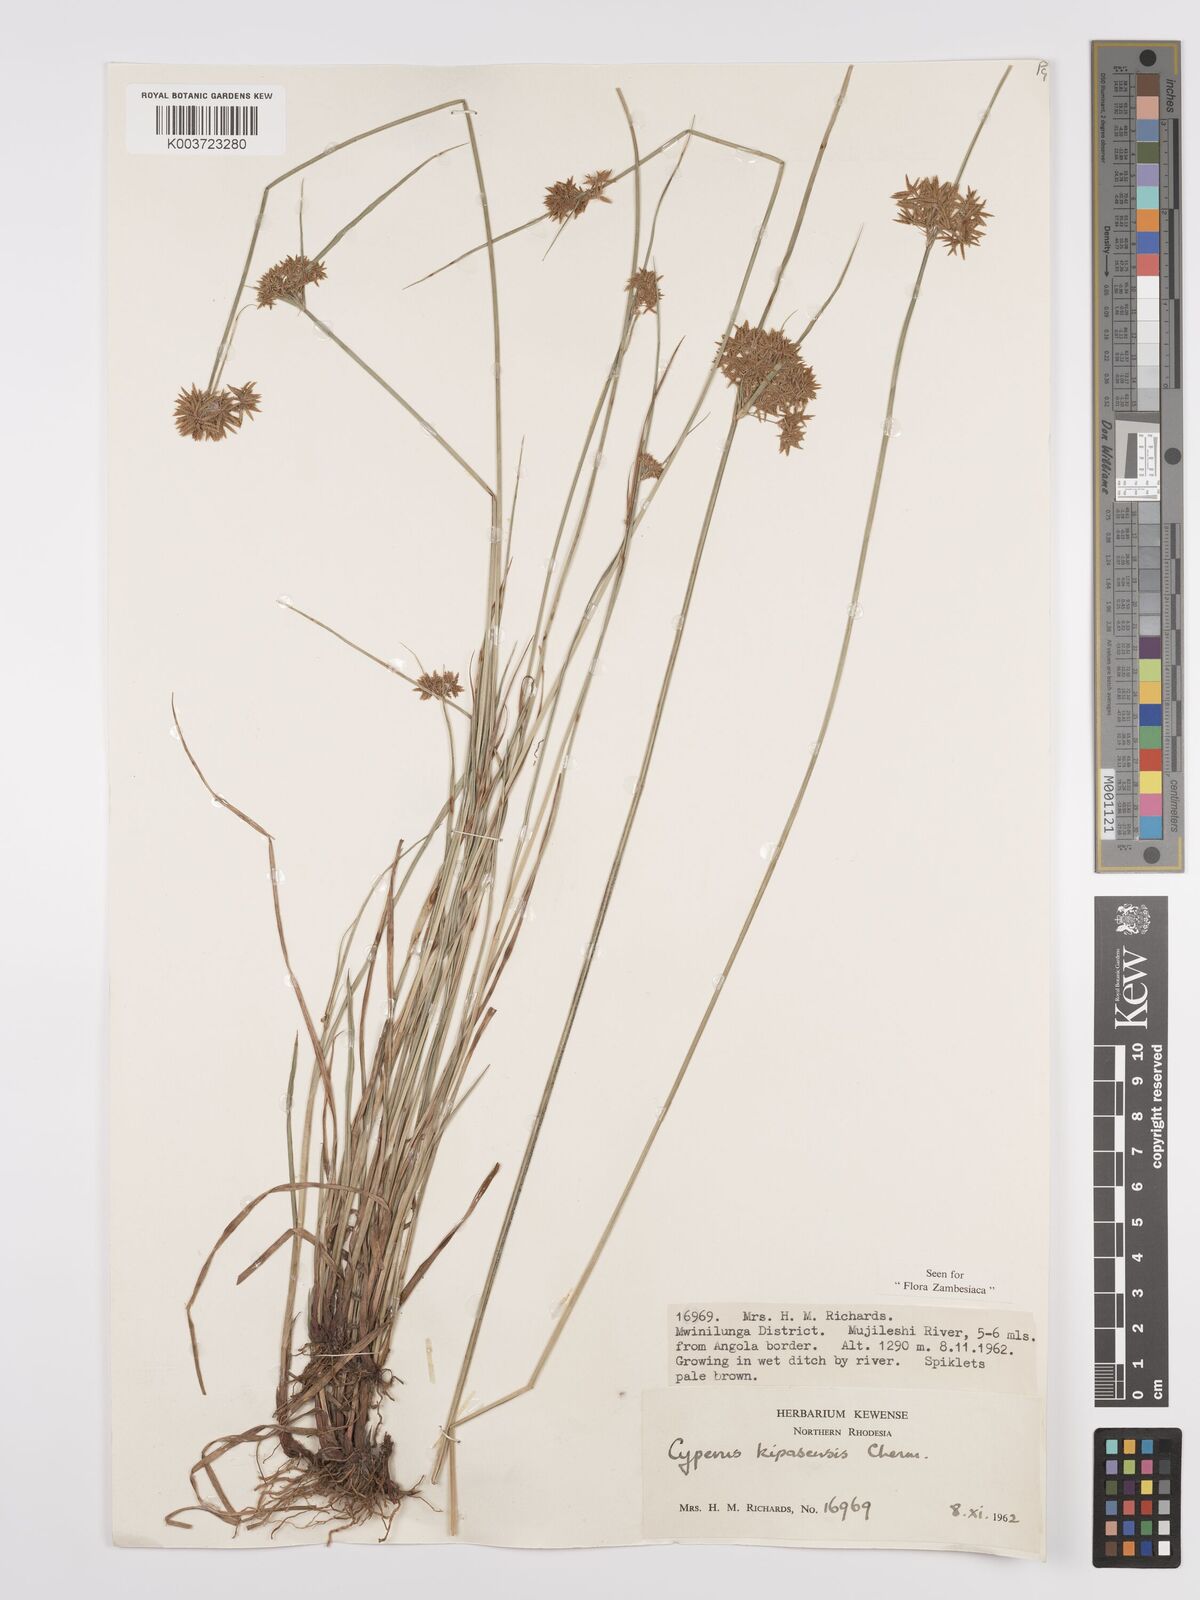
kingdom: Plantae
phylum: Tracheophyta
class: Liliopsida
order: Poales
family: Cyperaceae
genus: Cyperus
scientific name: Cyperus kipasensis
